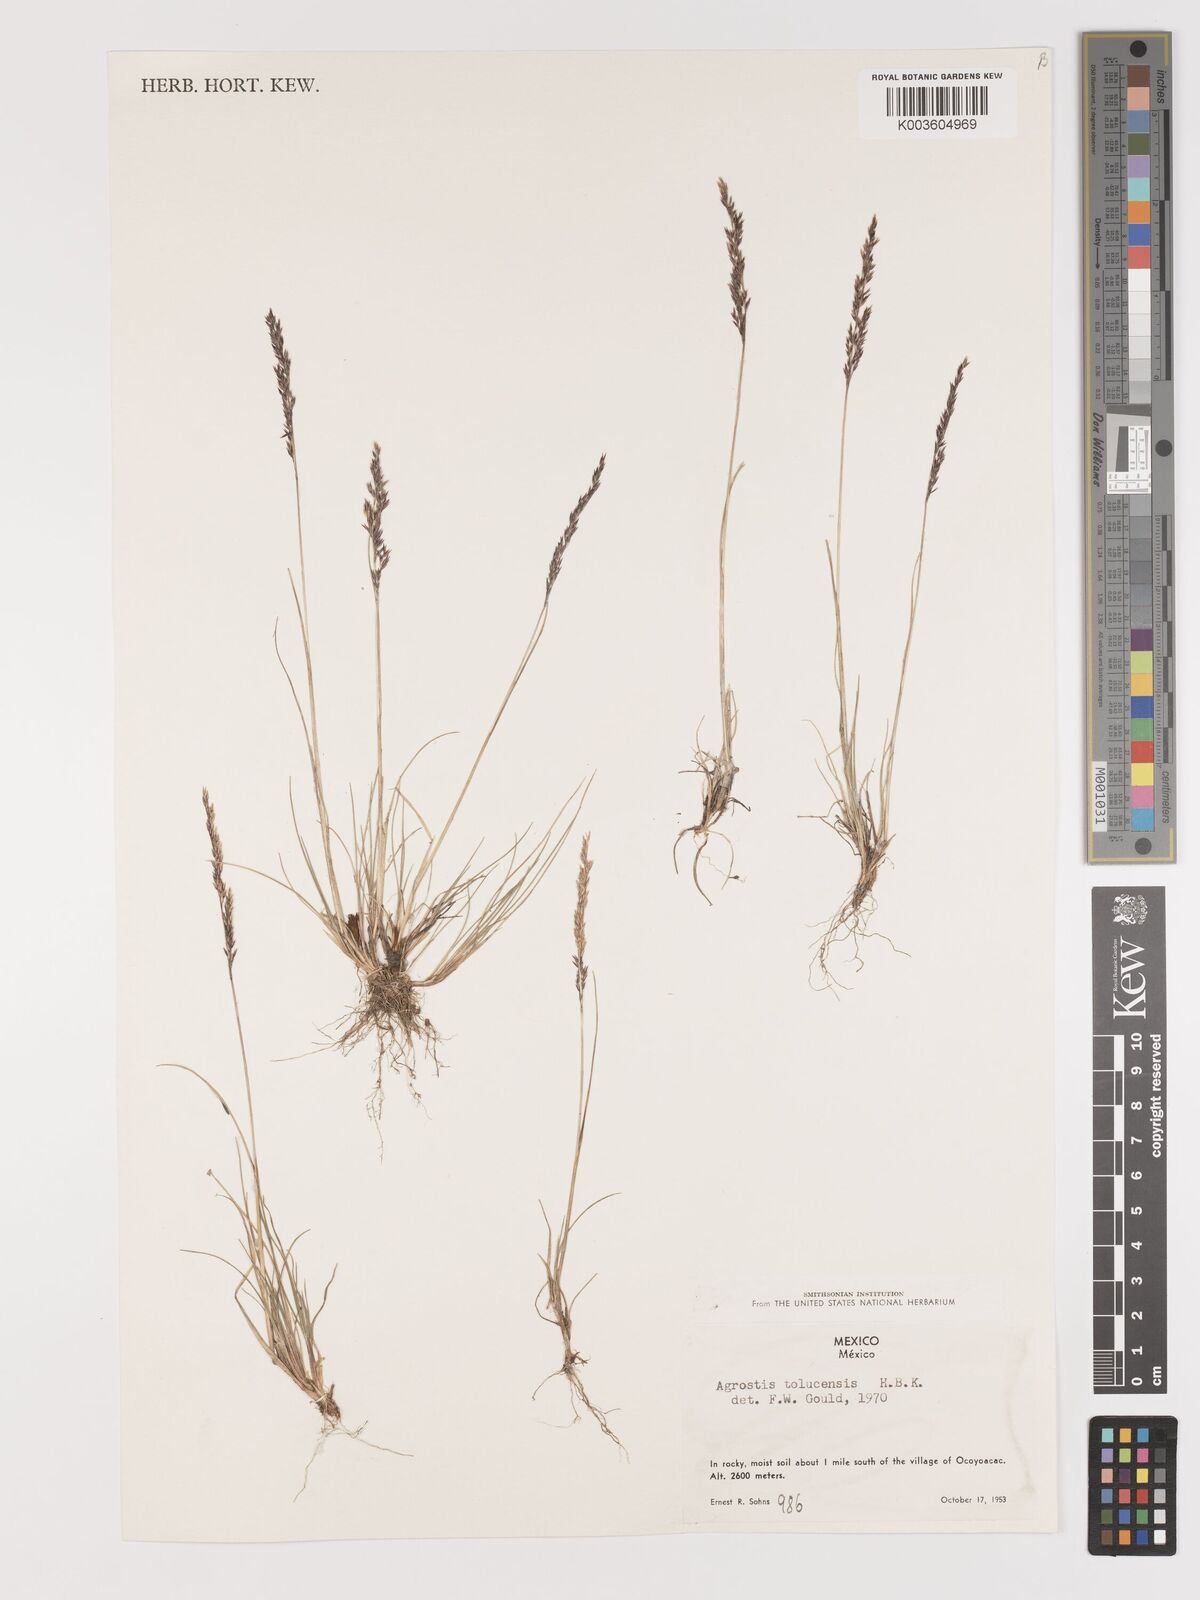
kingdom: Plantae
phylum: Tracheophyta
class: Liliopsida
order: Poales
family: Poaceae
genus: Agrostis
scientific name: Agrostis tolucensis
